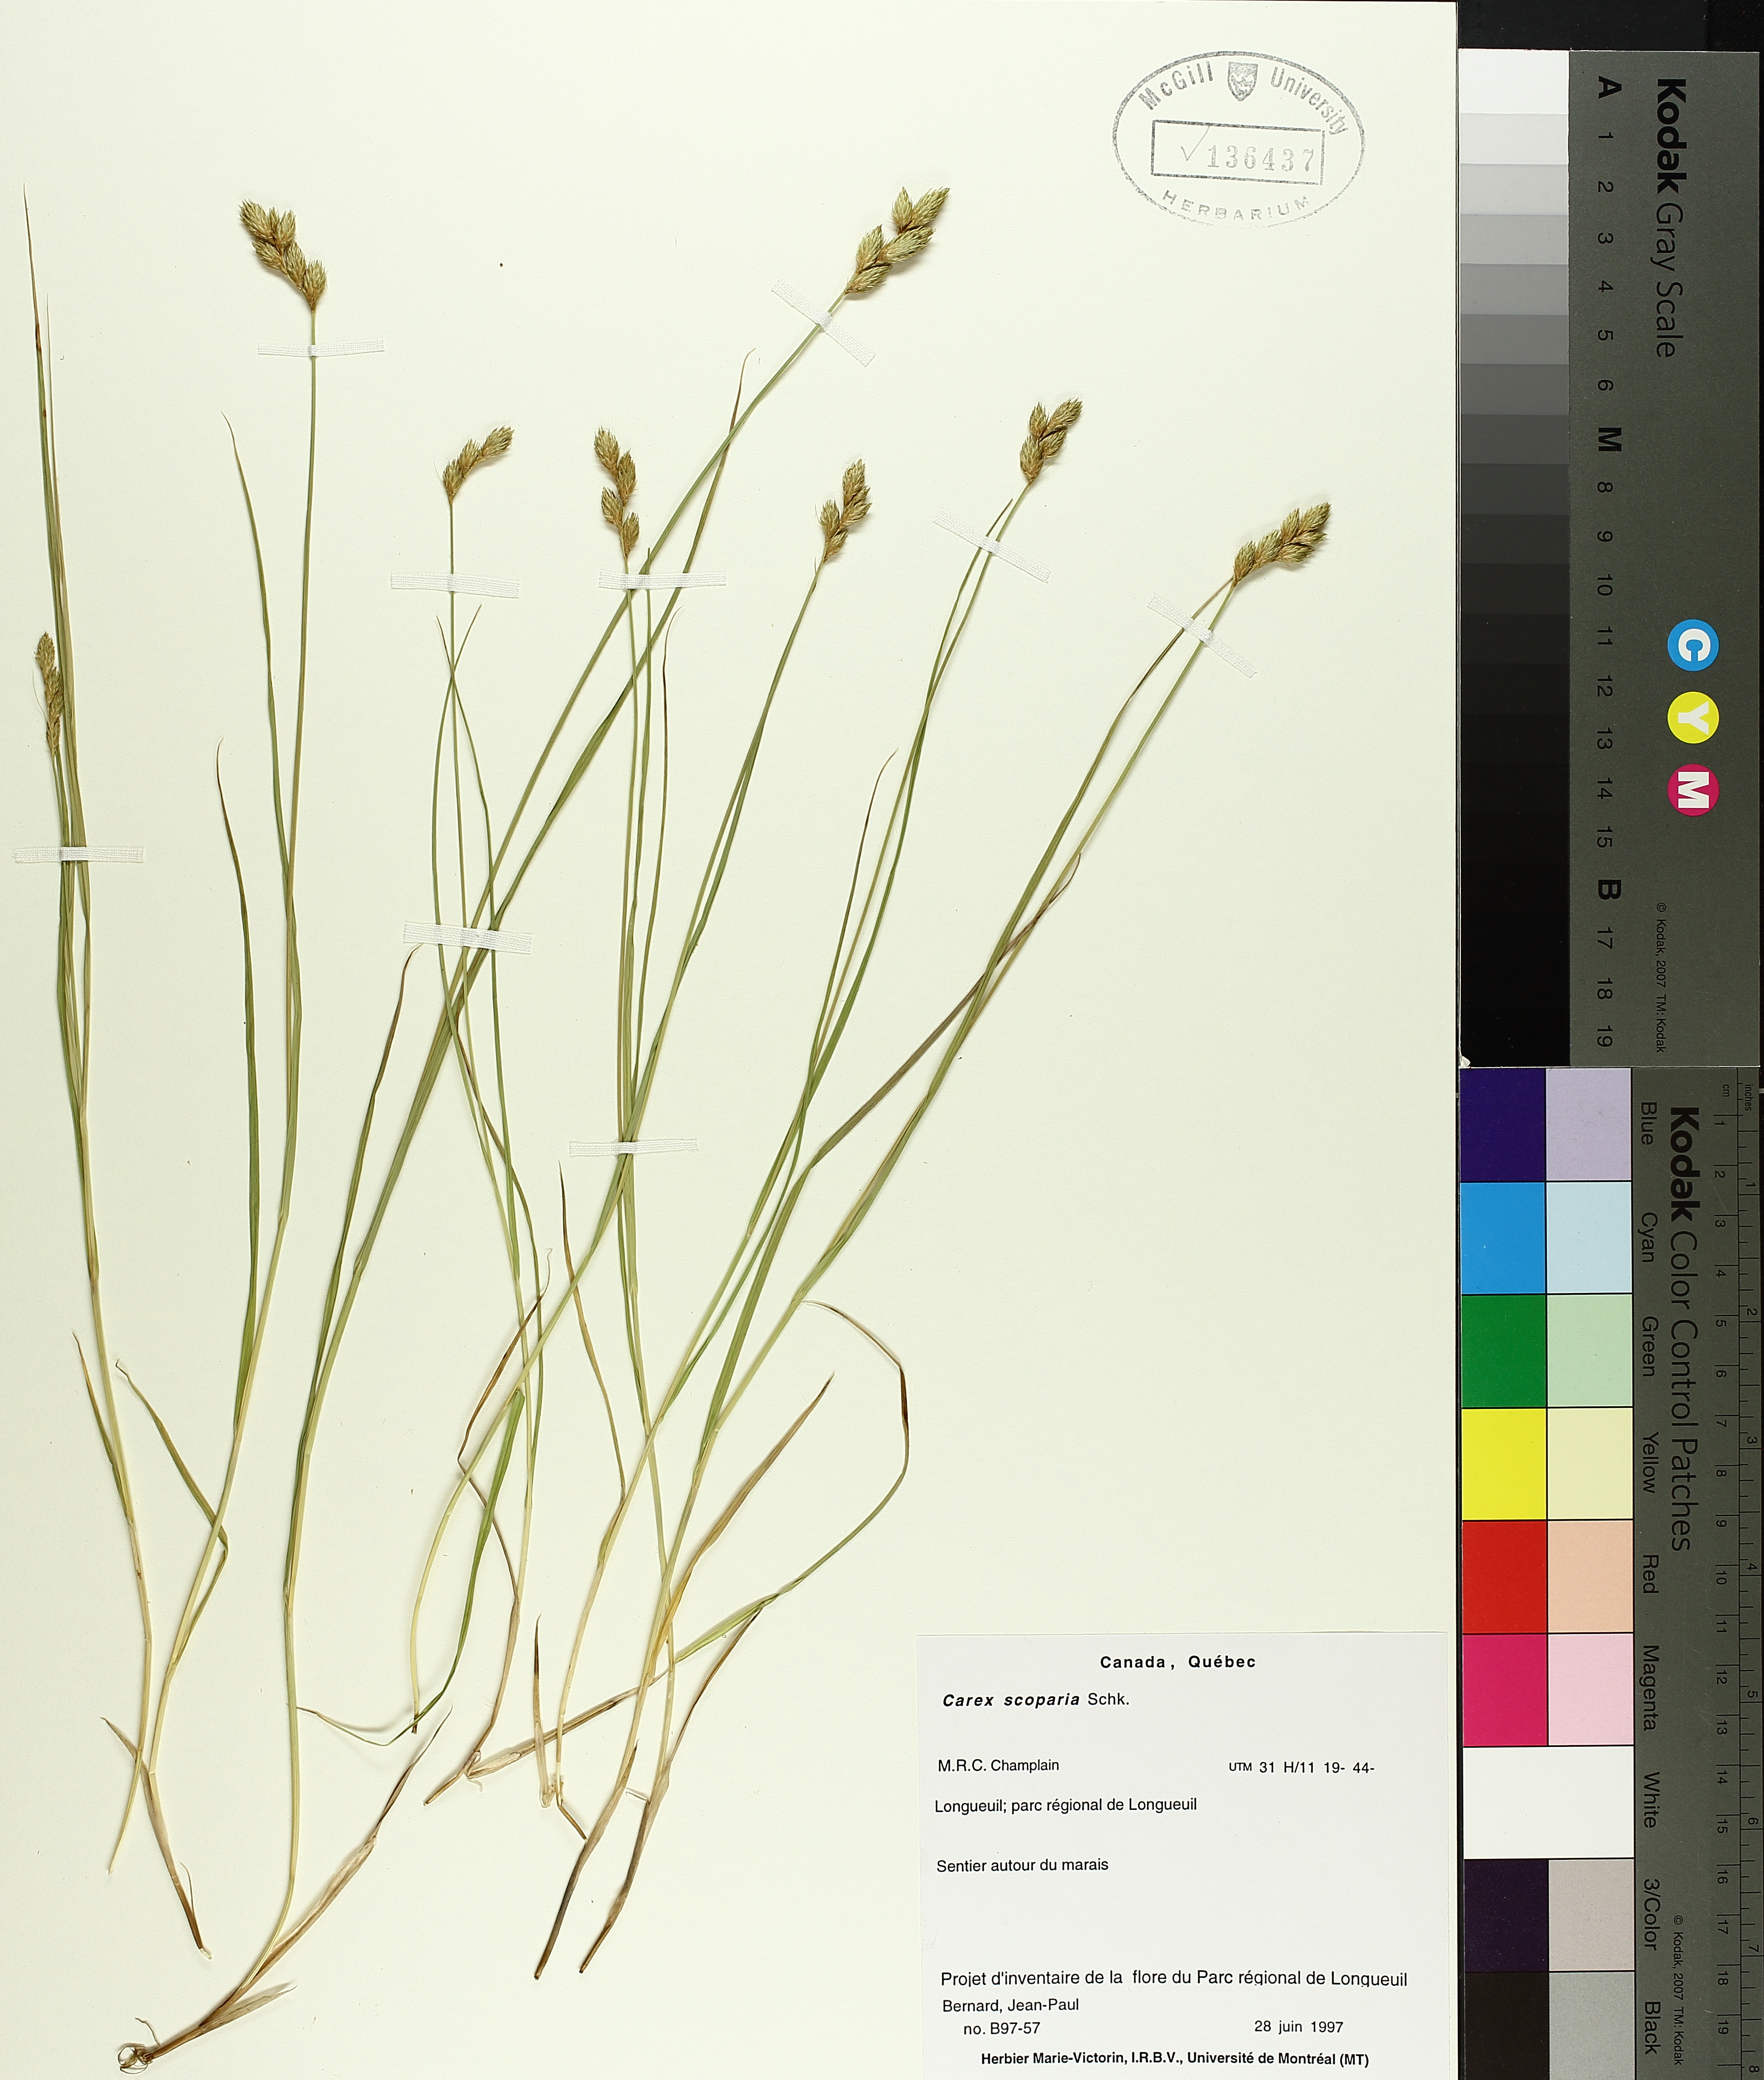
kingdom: Plantae
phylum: Tracheophyta
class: Liliopsida
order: Poales
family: Cyperaceae
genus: Carex
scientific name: Carex scoparia
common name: Broom sedge
